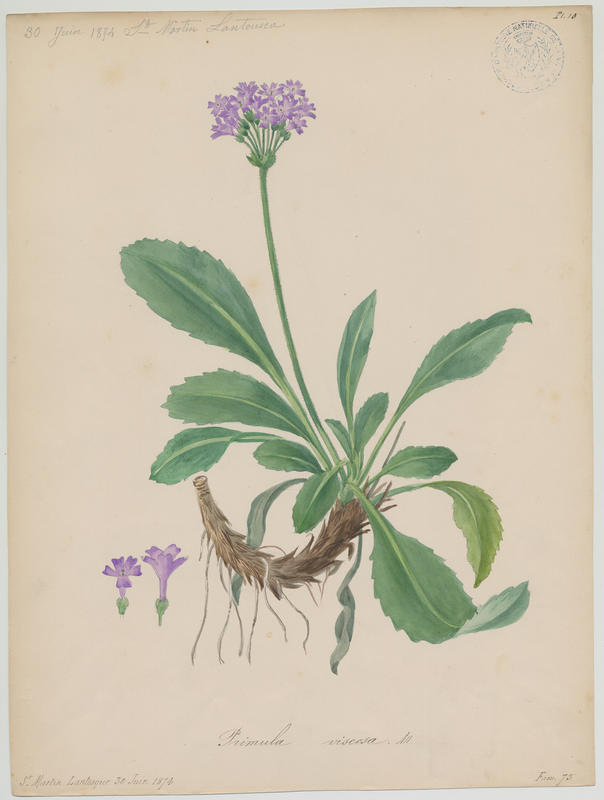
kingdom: Plantae
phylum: Tracheophyta
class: Magnoliopsida
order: Ericales
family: Primulaceae
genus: Primula
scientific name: Primula hirsuta
